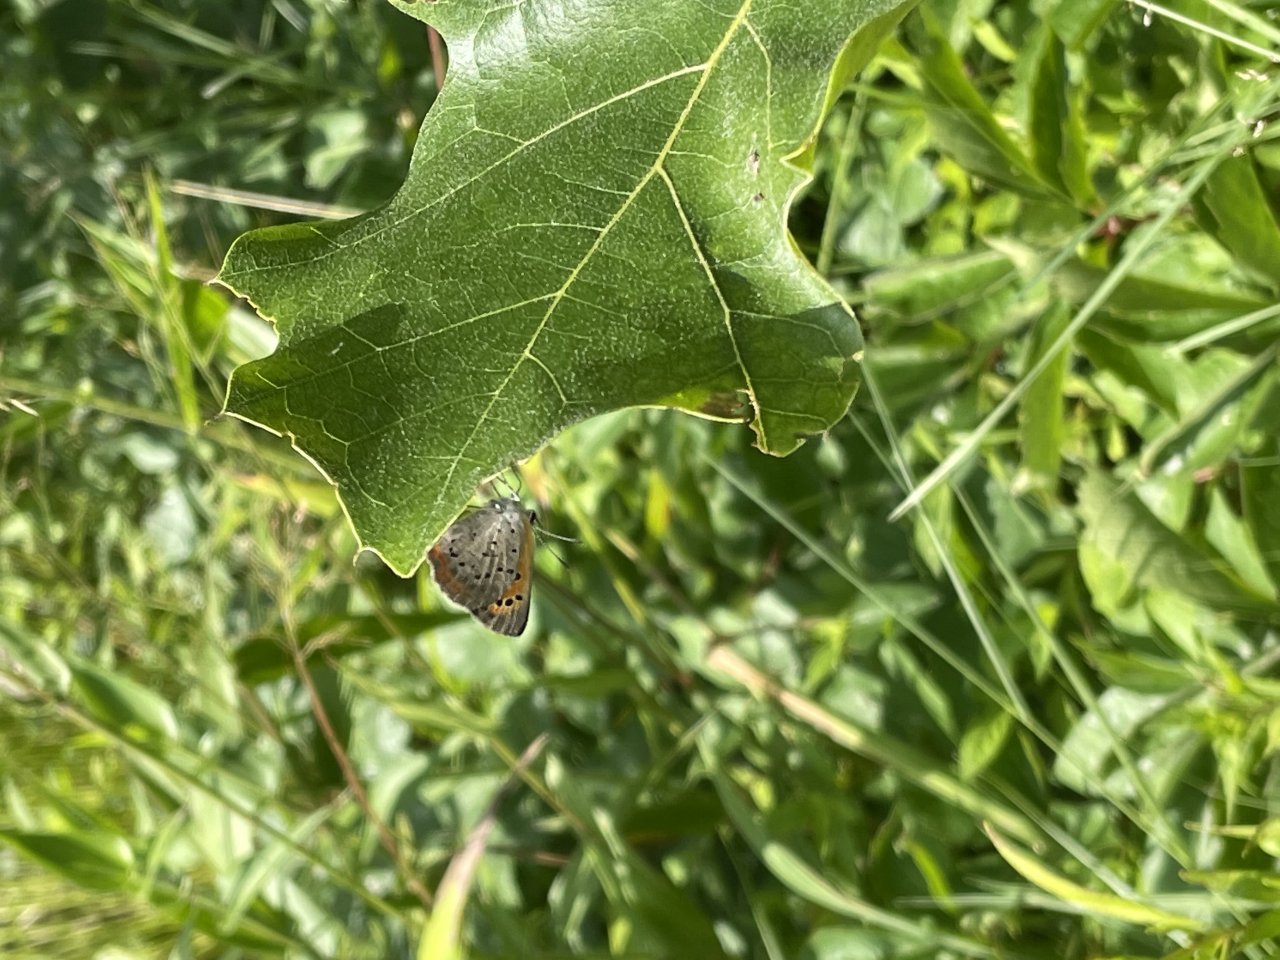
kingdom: Animalia
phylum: Arthropoda
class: Insecta
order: Lepidoptera
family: Lycaenidae
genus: Lycaena
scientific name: Lycaena phlaeas
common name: American Copper
